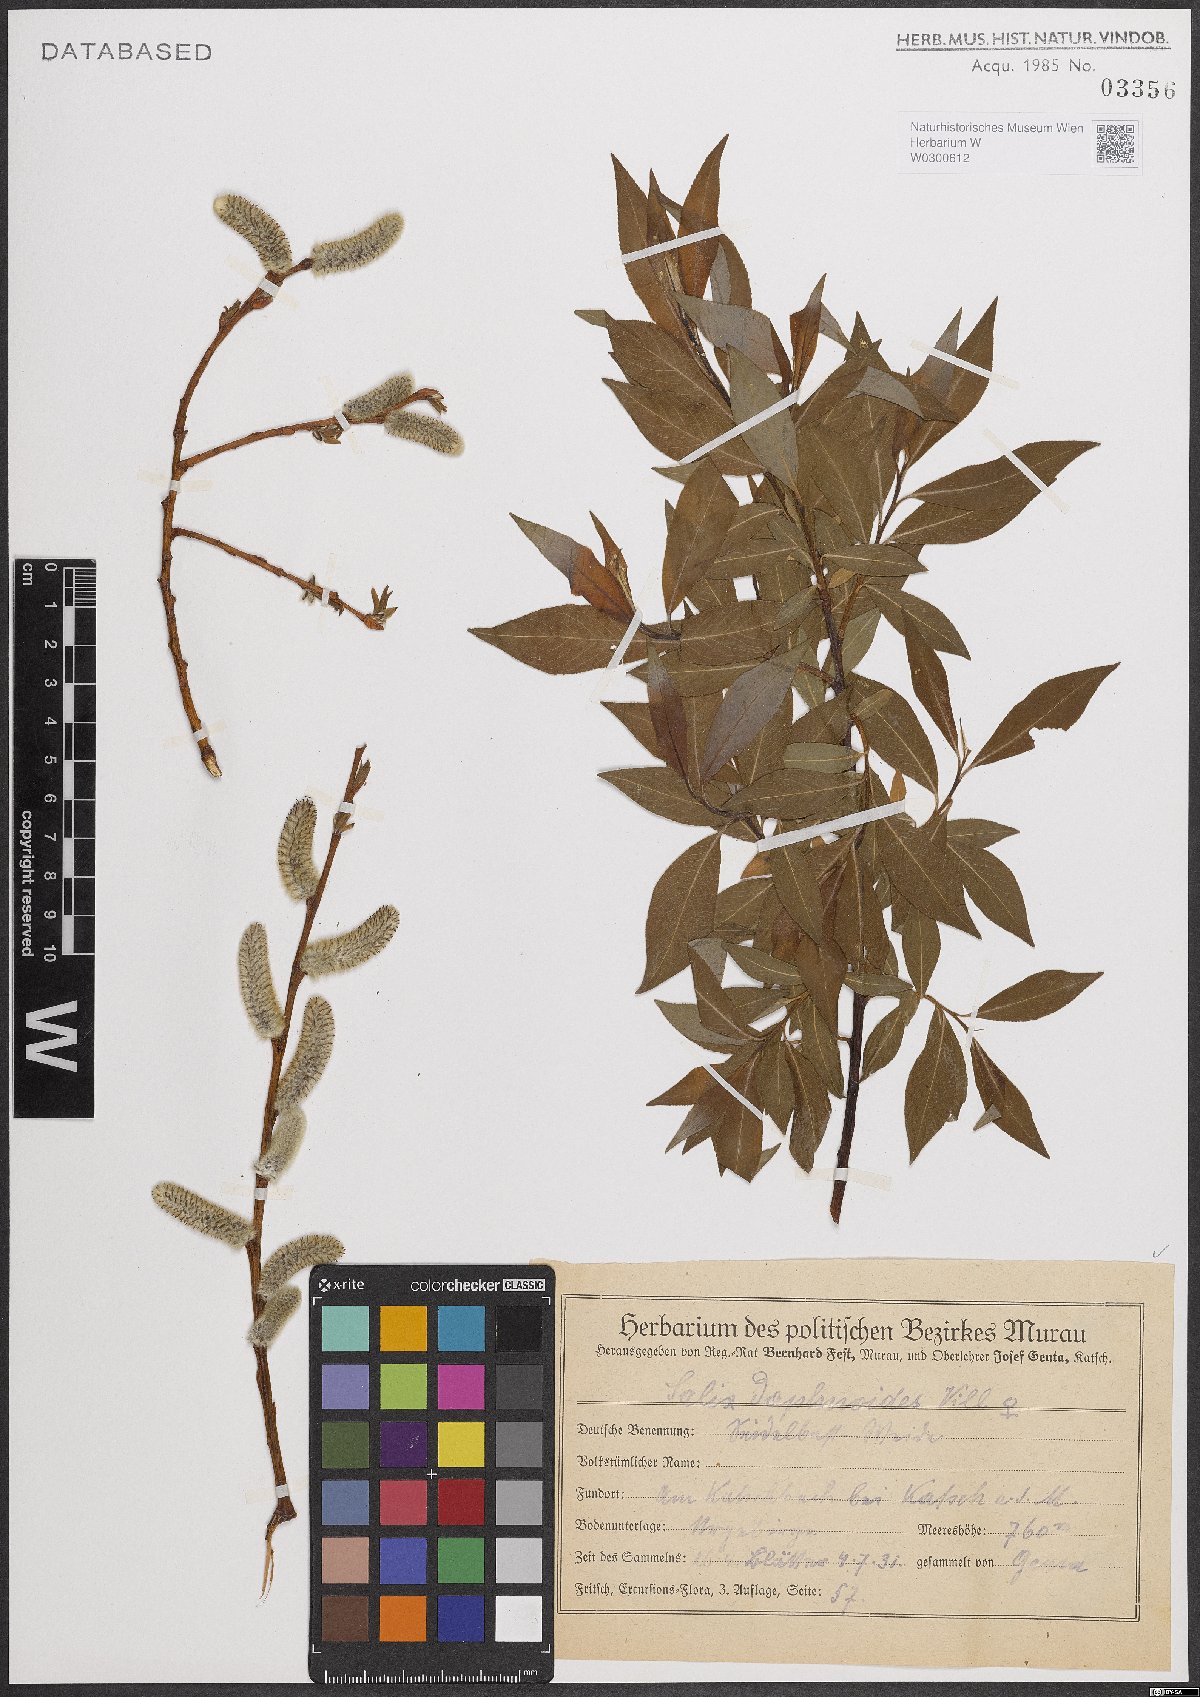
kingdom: Plantae
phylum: Tracheophyta
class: Magnoliopsida
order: Malpighiales
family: Salicaceae
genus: Salix
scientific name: Salix daphnoides
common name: European violet-willow
